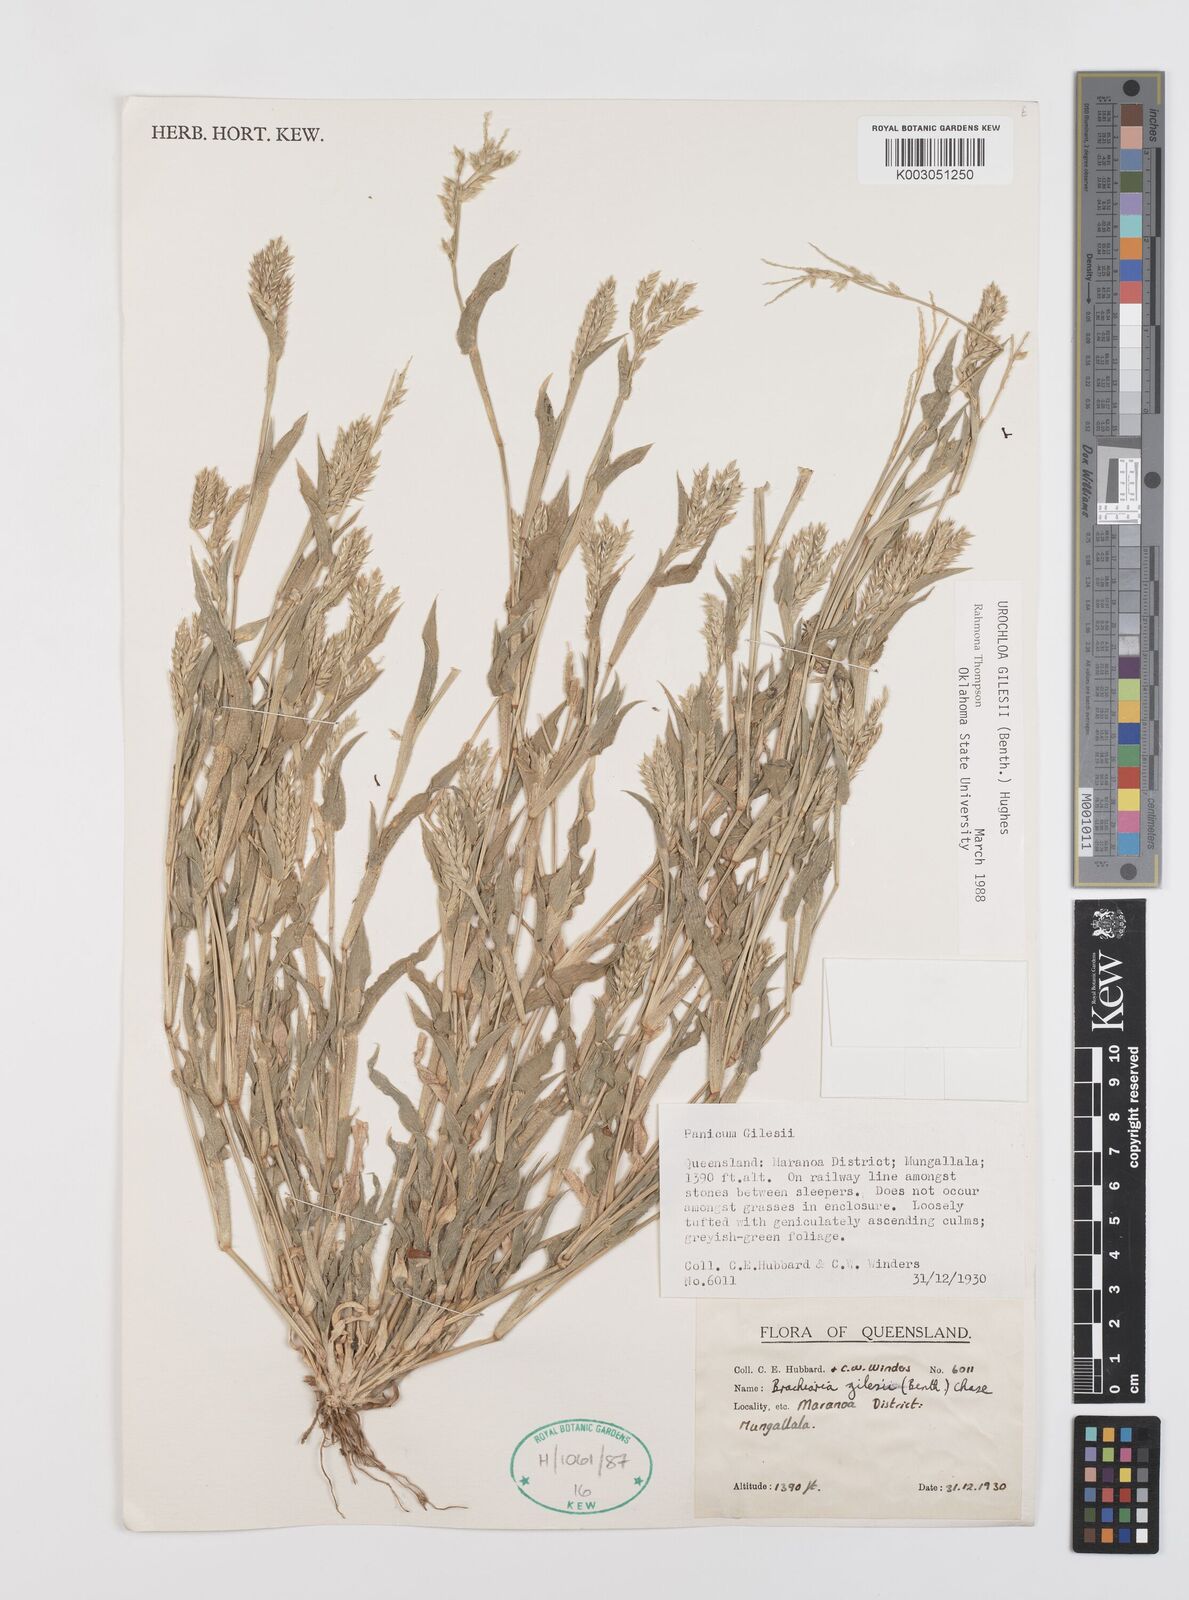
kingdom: Plantae
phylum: Tracheophyta
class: Liliopsida
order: Poales
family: Poaceae
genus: Urochloa
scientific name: Urochloa gilesii
